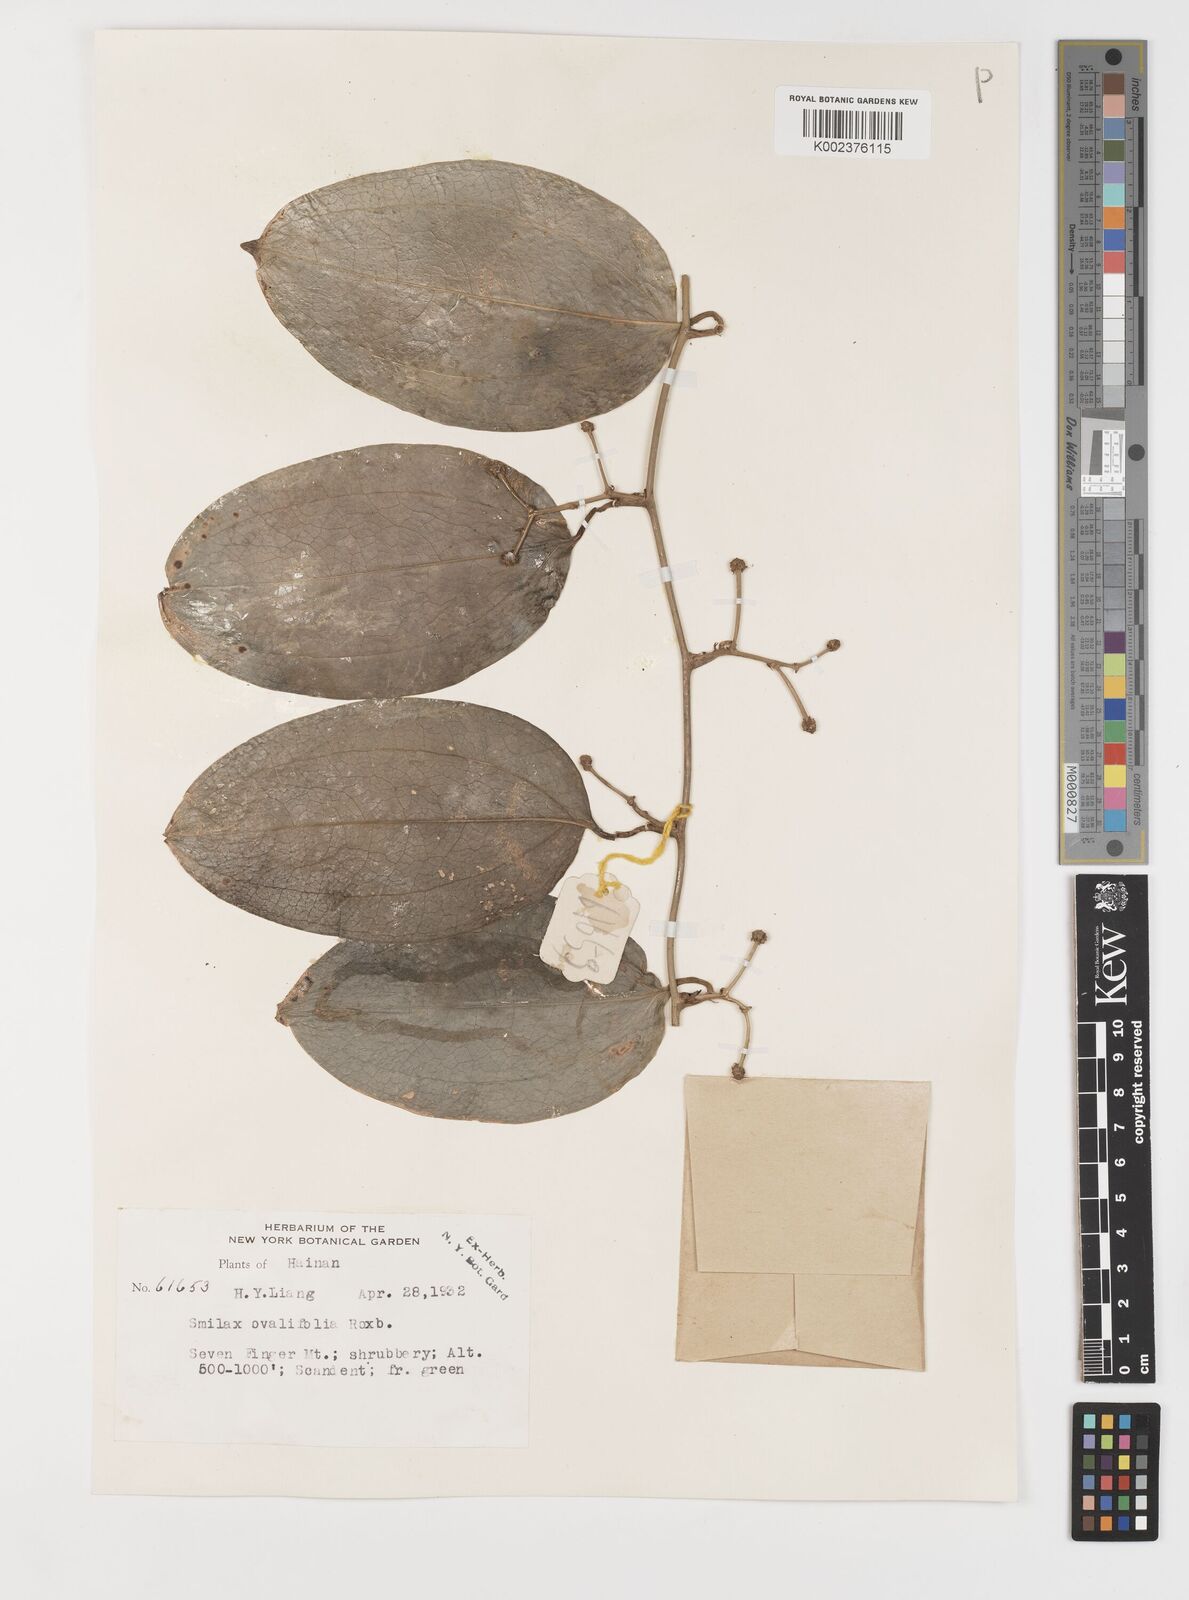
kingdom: Plantae
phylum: Tracheophyta
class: Liliopsida
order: Liliales
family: Smilacaceae
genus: Smilax
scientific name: Smilax ovalifolia
